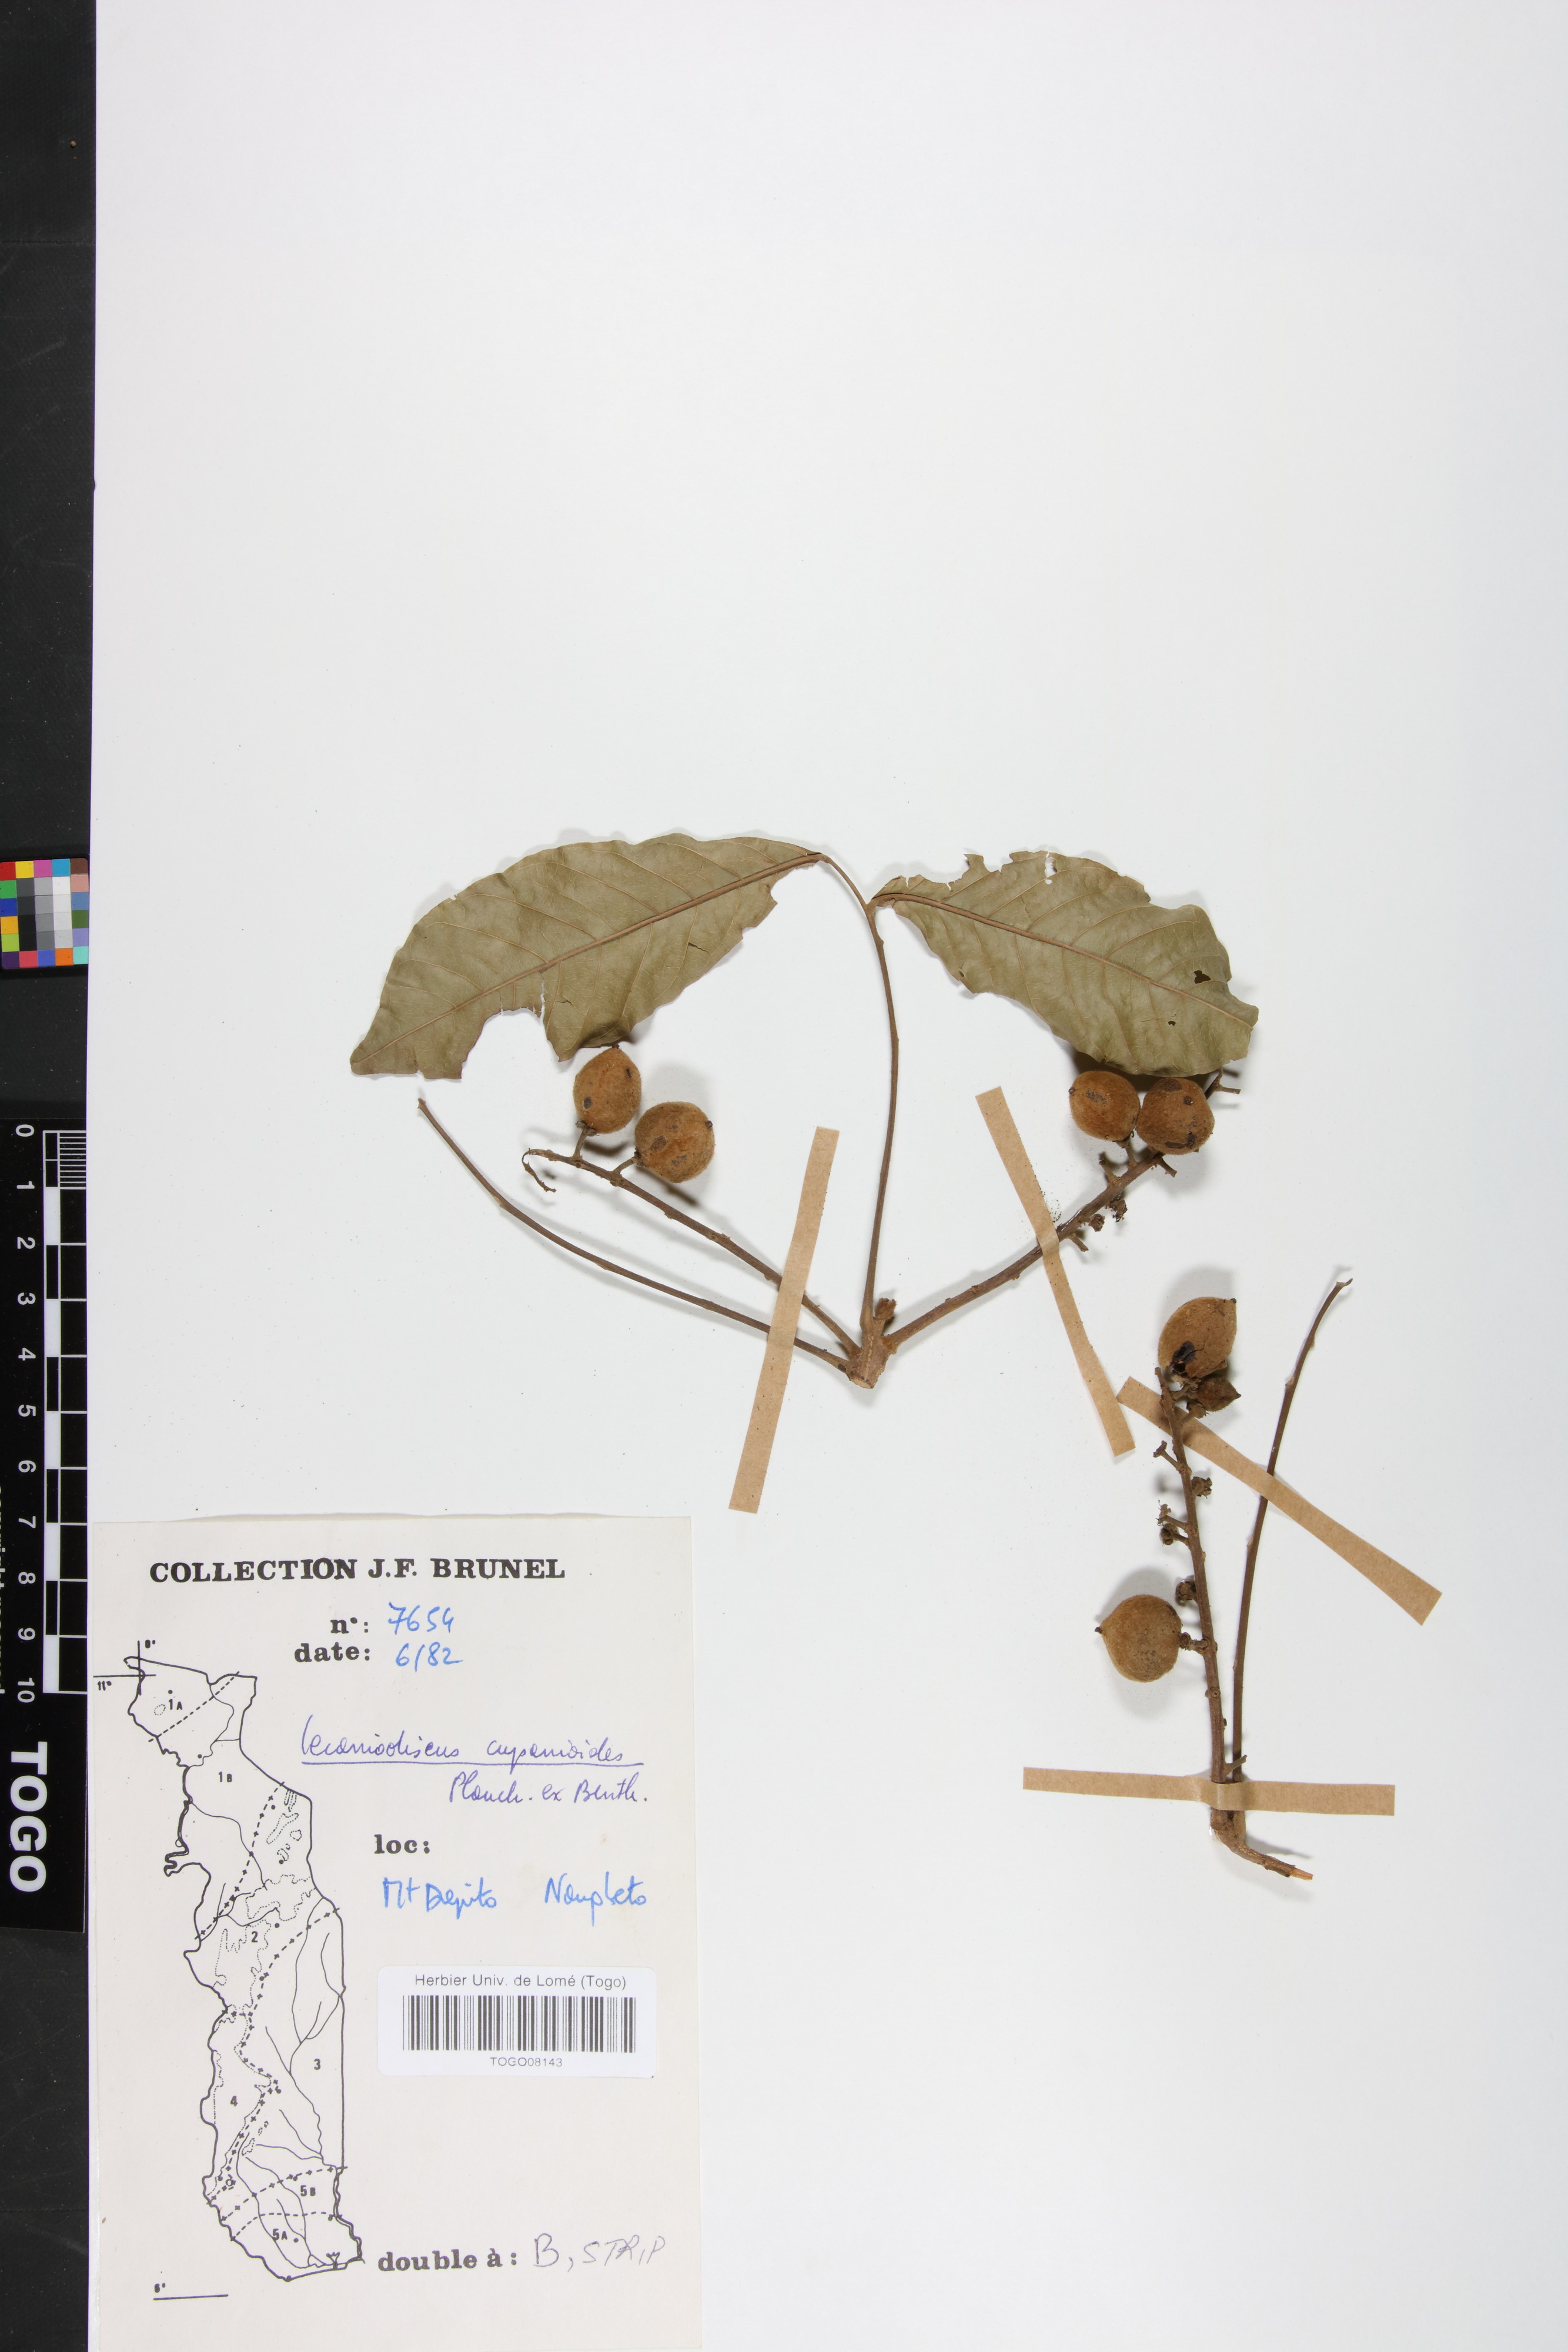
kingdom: Plantae
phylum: Tracheophyta
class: Magnoliopsida
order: Sapindales
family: Sapindaceae
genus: Lecaniodiscus
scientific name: Lecaniodiscus cupanioides
